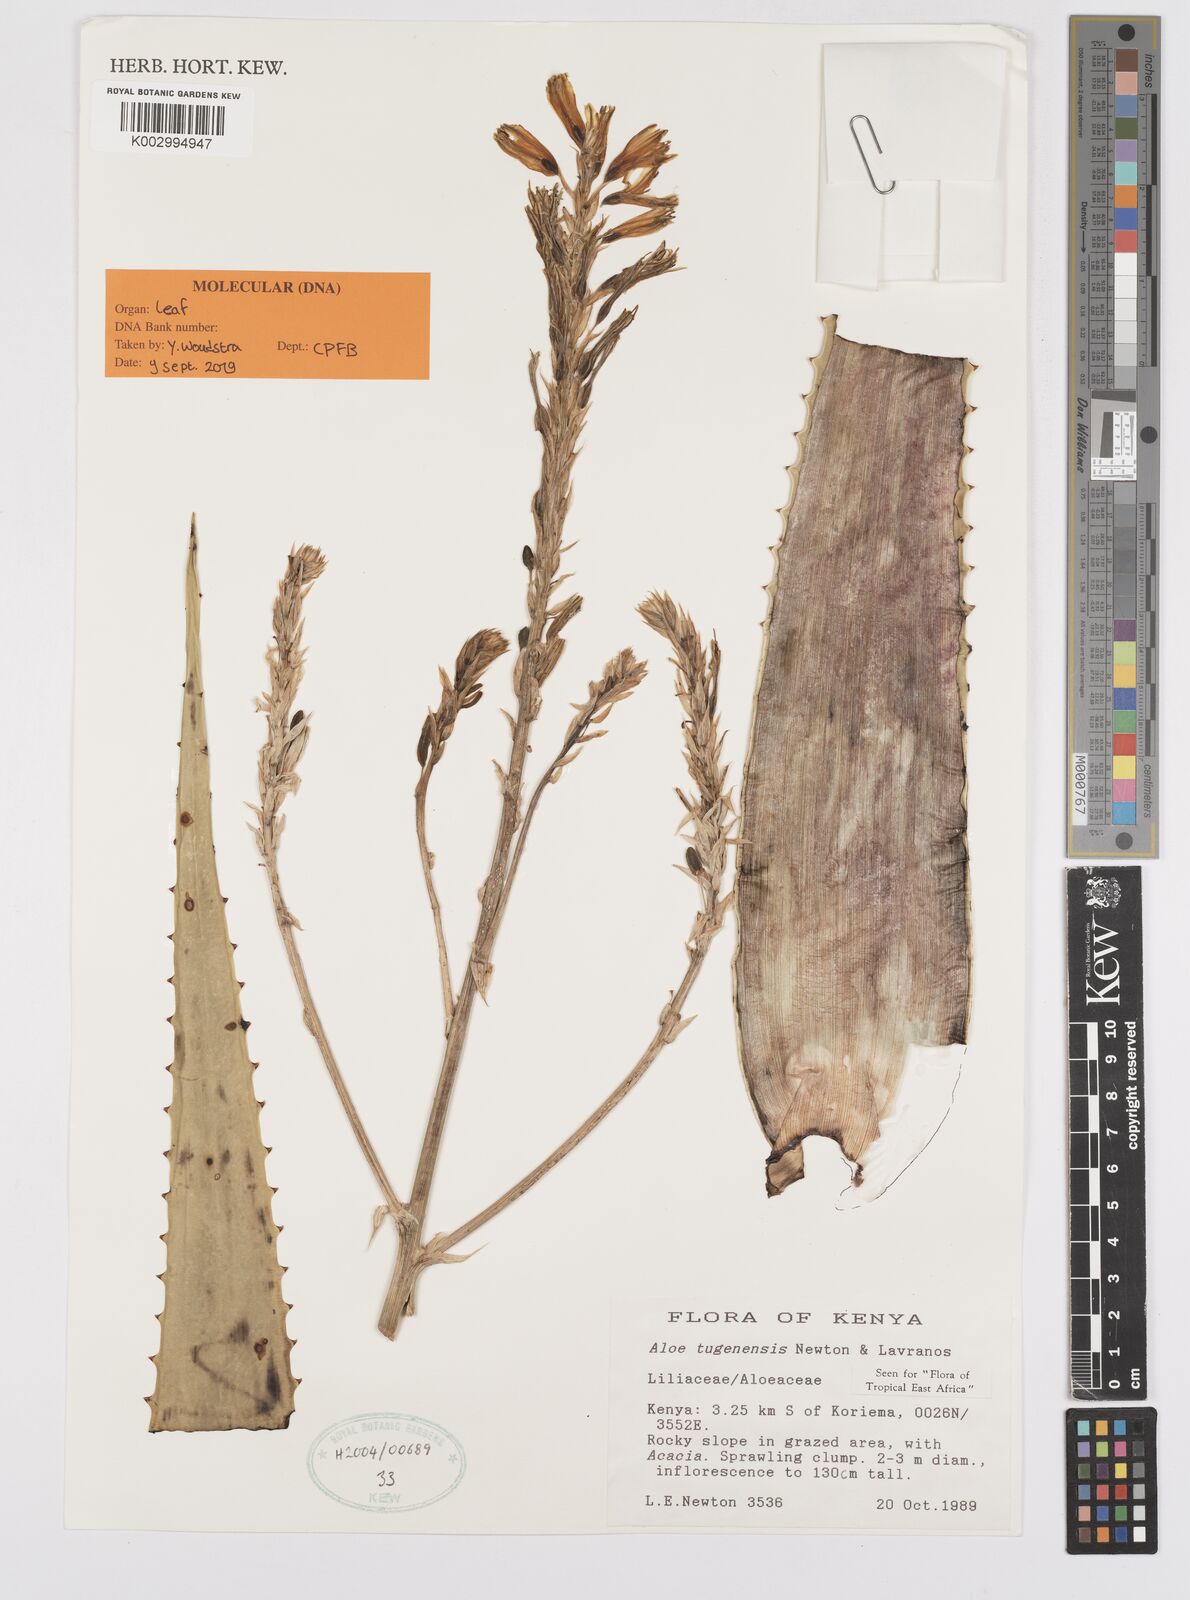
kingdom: Plantae
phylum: Tracheophyta
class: Liliopsida
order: Asparagales
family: Asphodelaceae
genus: Aloe
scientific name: Aloe archeri
